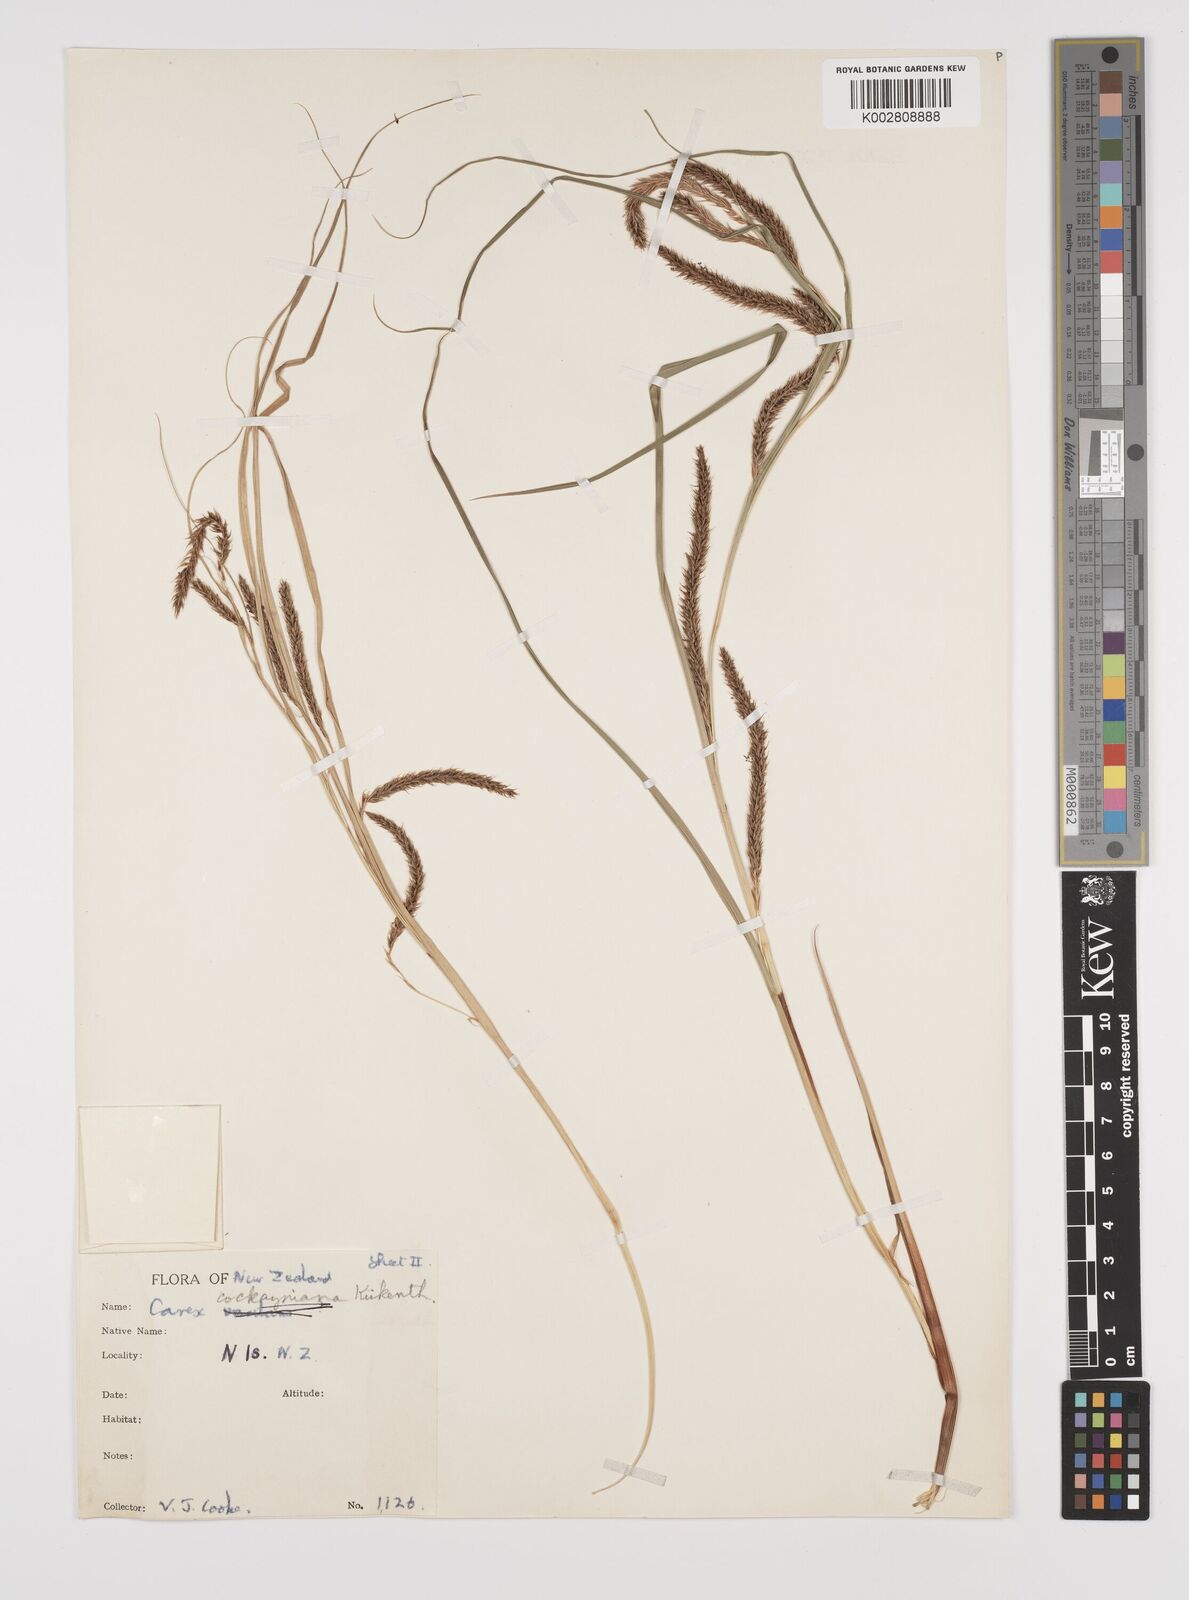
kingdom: Plantae
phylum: Tracheophyta
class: Liliopsida
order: Poales
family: Cyperaceae
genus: Carex
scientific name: Carex forsteri
